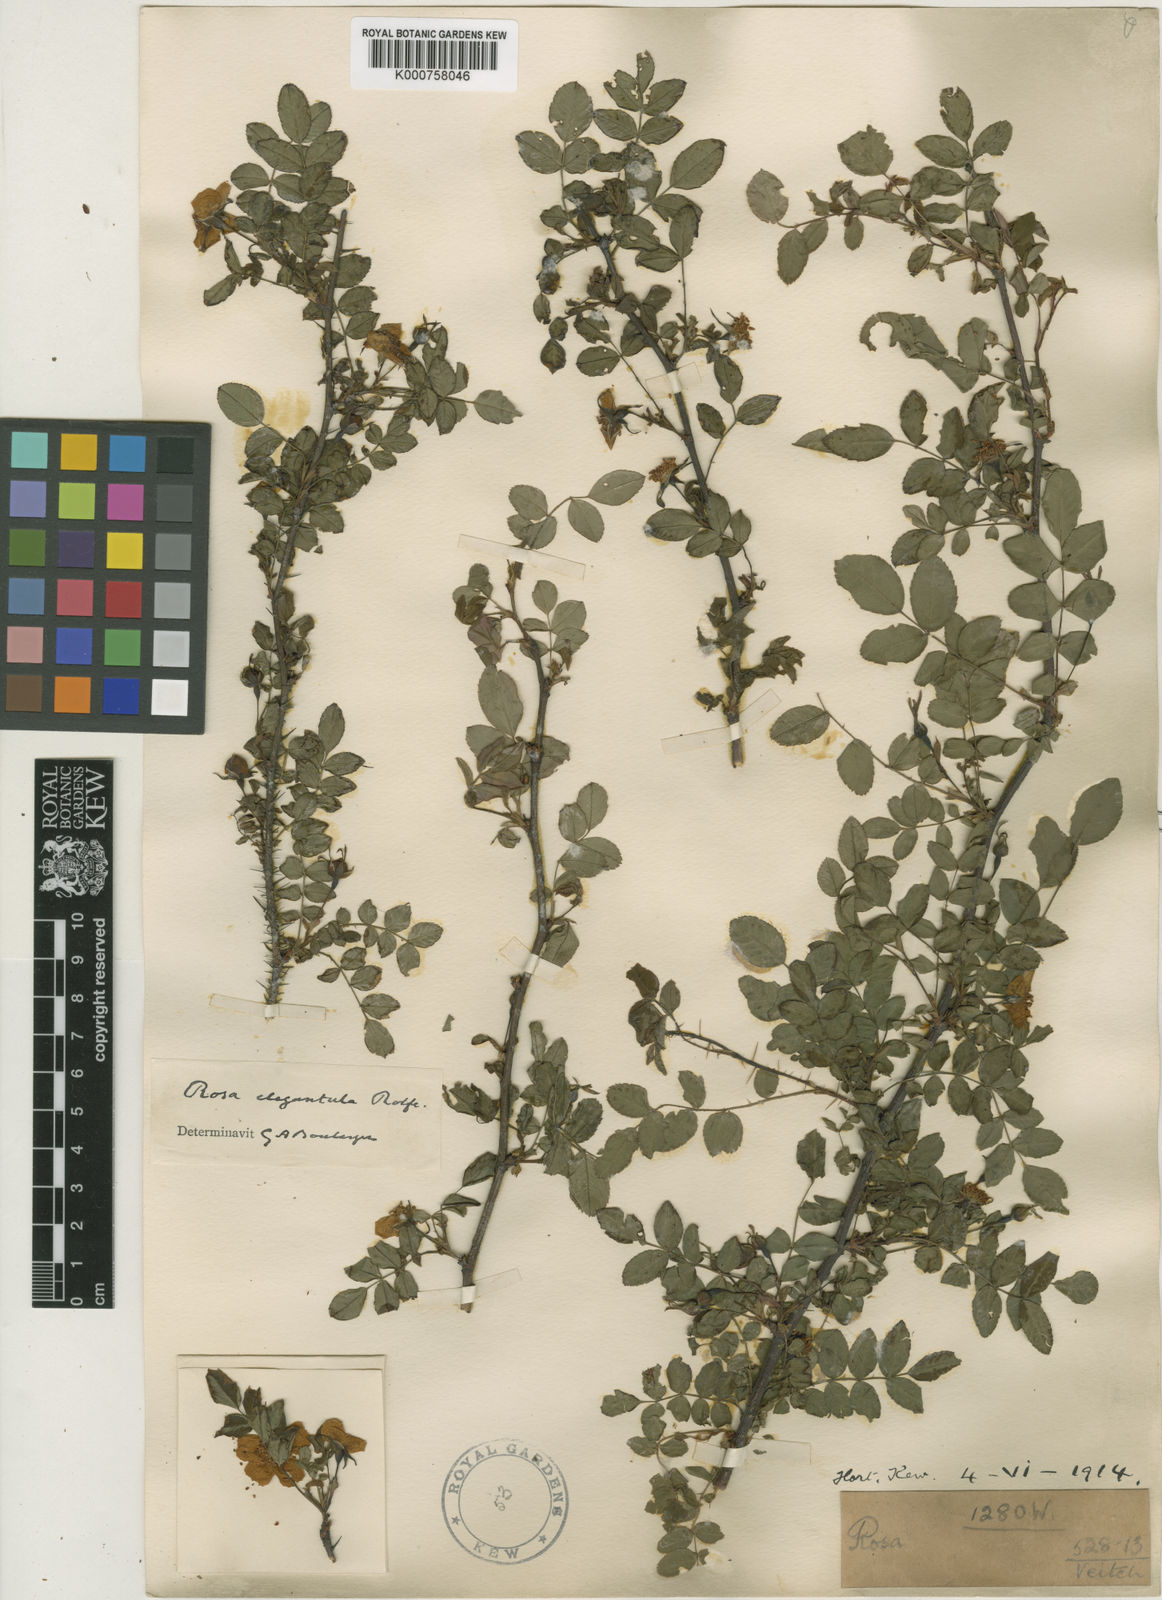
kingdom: Plantae
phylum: Tracheophyta
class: Magnoliopsida
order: Rosales
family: Rosaceae
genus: Rosa
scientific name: Rosa persetosa
